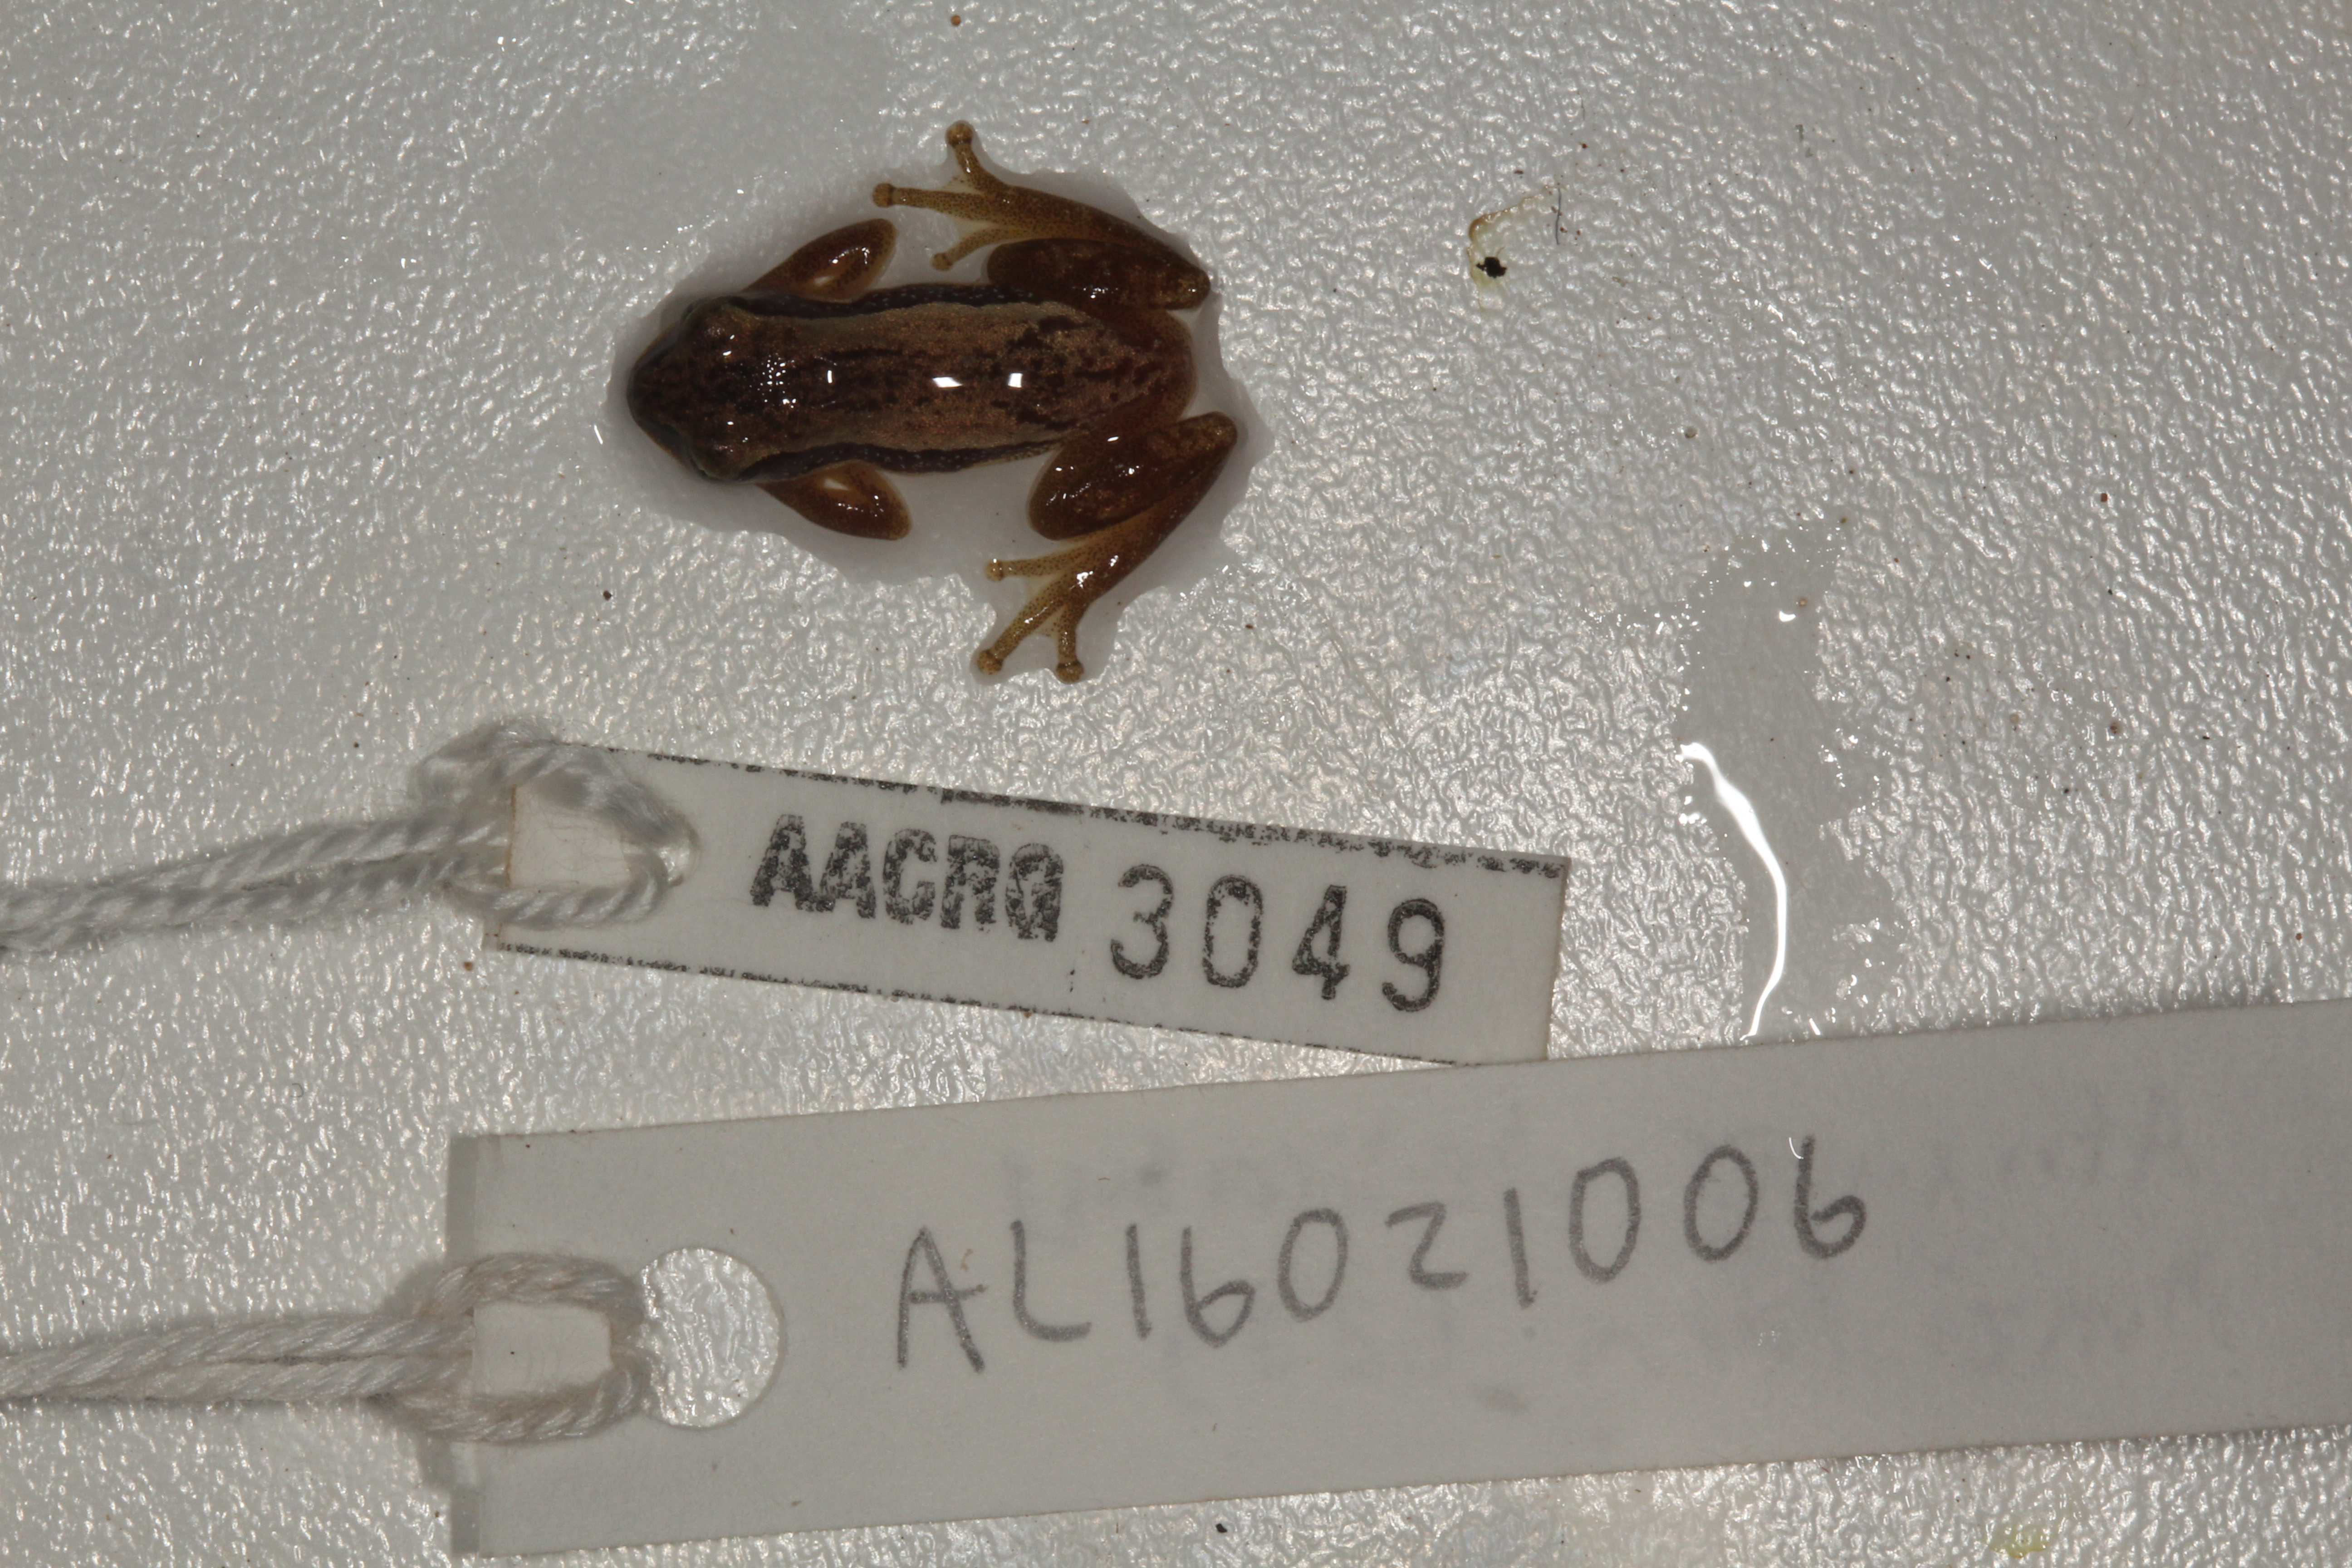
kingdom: Animalia
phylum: Chordata
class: Amphibia
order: Anura
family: Hyperoliidae
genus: Afrixalus
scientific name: Afrixalus delicatus
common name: Delicate leaf-folding frog
